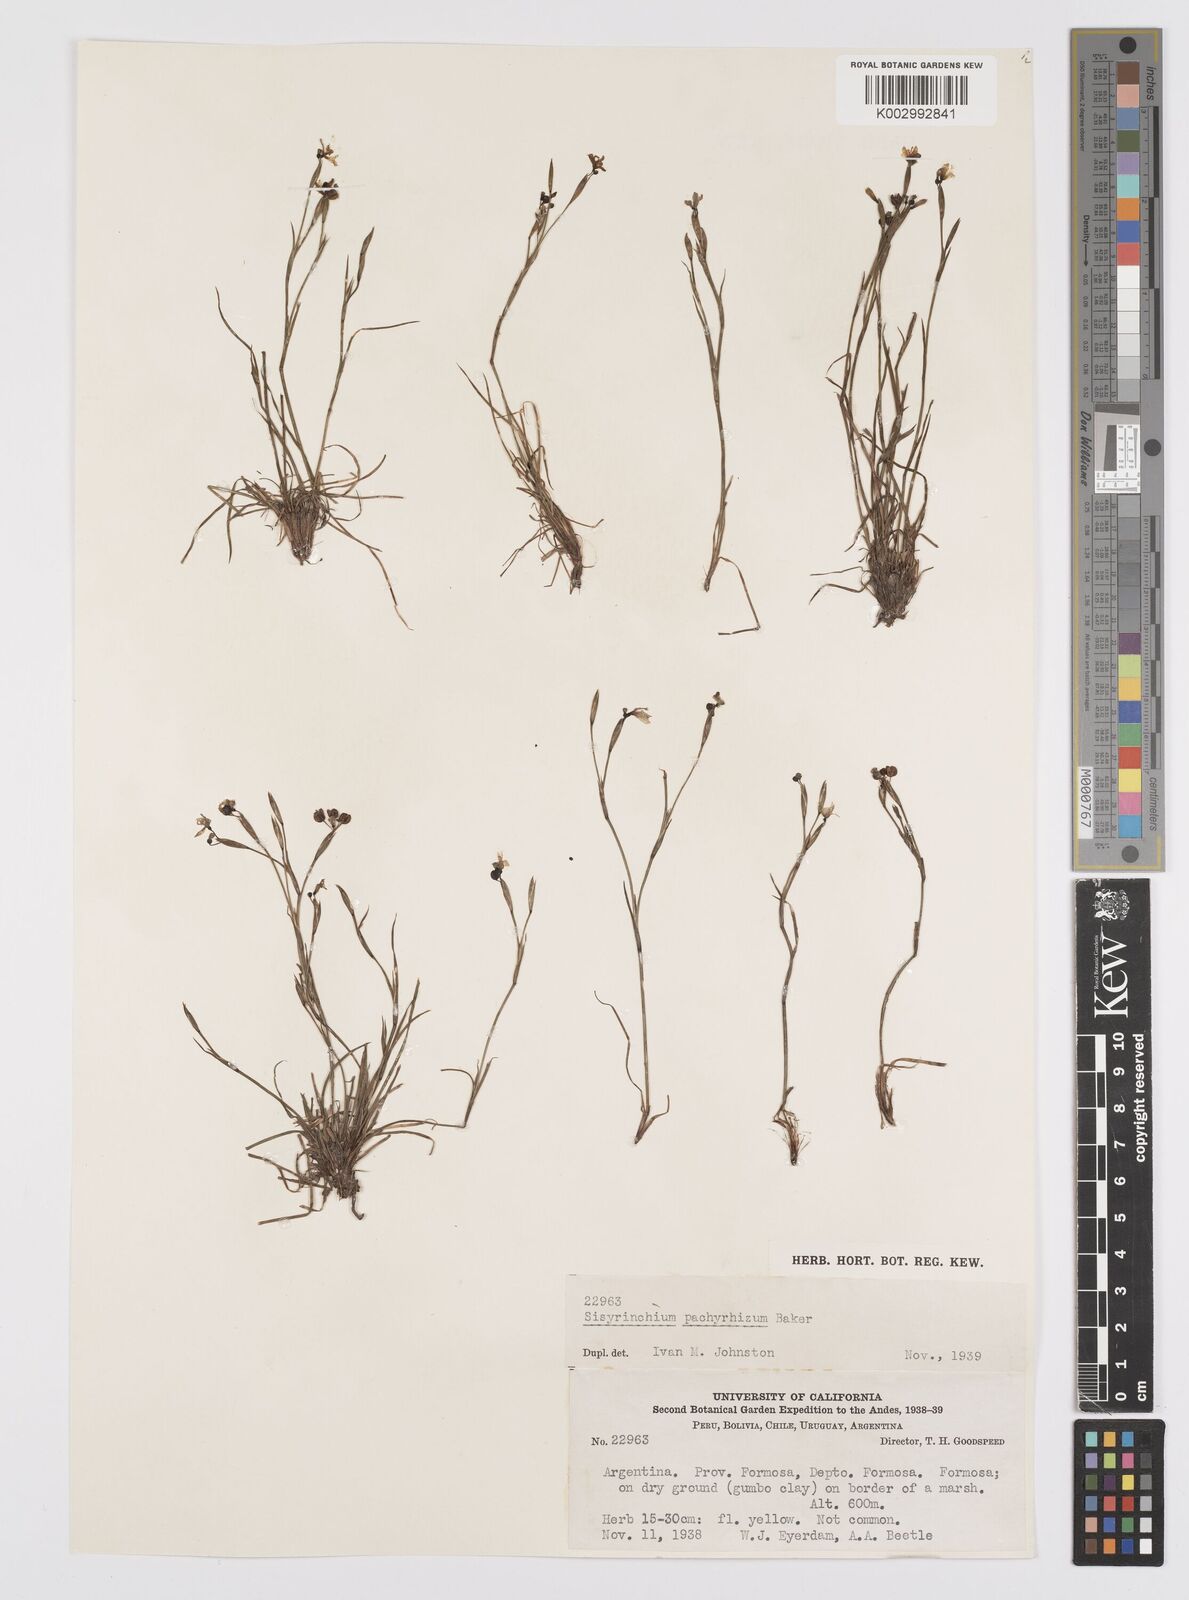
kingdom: Plantae
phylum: Tracheophyta
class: Liliopsida
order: Asparagales
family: Iridaceae
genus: Sisyrinchium
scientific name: Sisyrinchium pachyrhizum
